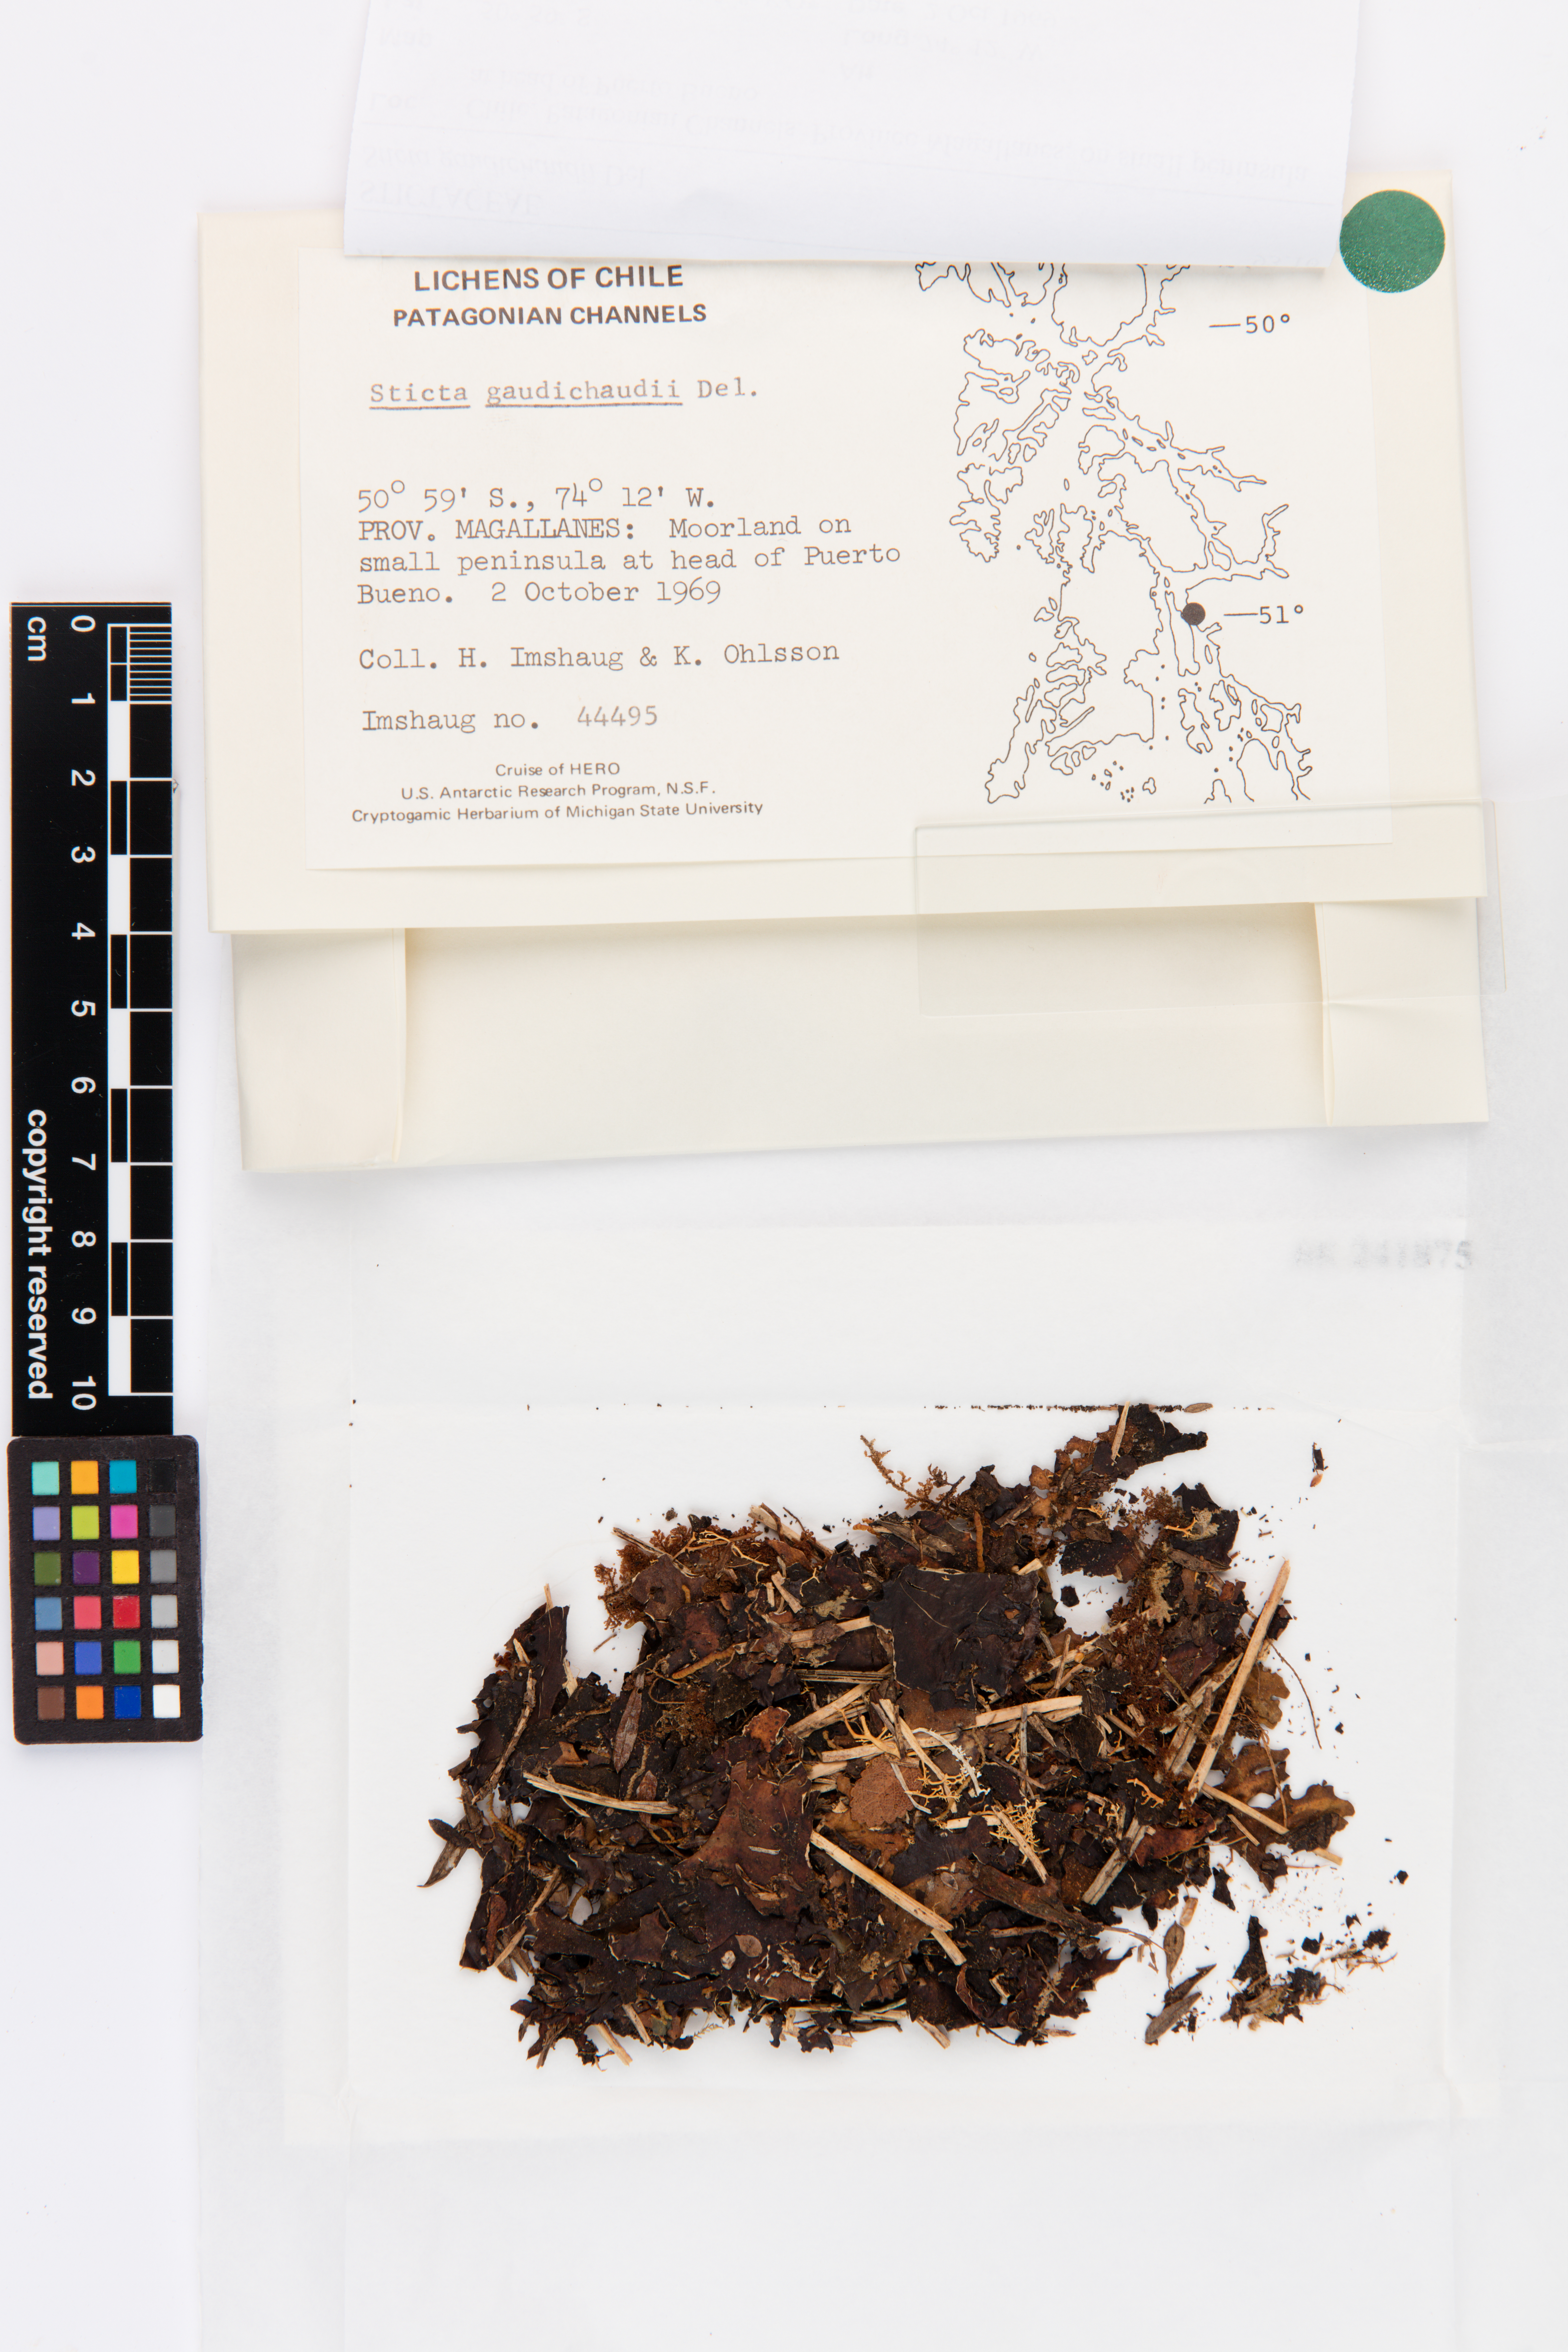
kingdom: Fungi
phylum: Ascomycota
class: Lecanoromycetes
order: Peltigerales
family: Lobariaceae
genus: Sticta
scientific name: Sticta gaudichaudii
